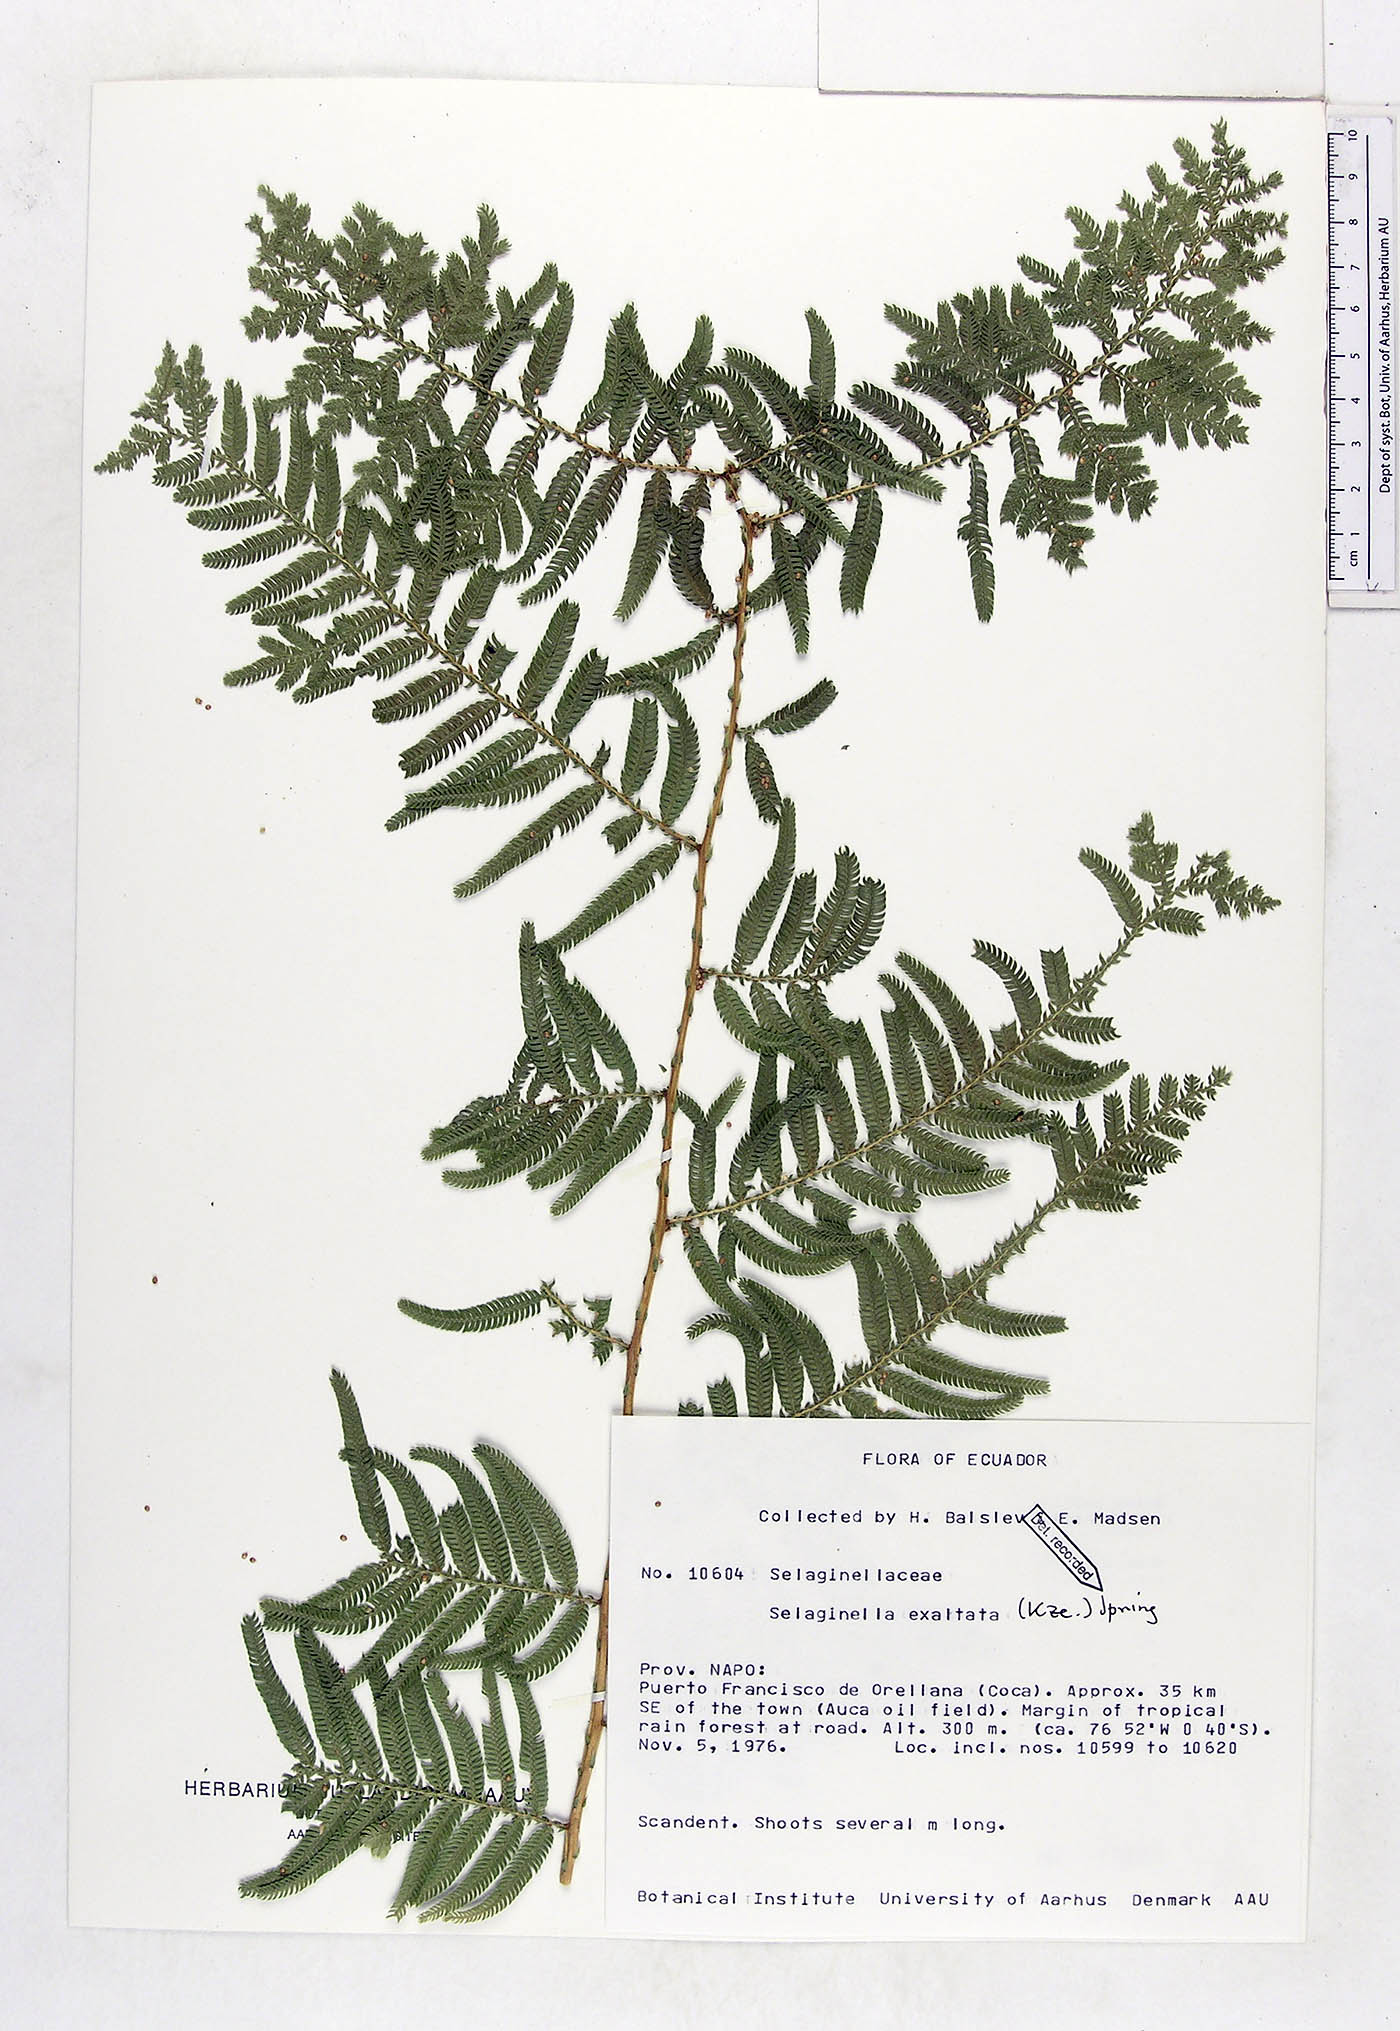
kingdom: Plantae
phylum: Tracheophyta
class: Lycopodiopsida
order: Selaginellales
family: Selaginellaceae
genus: Selaginella
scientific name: Selaginella exaltata
